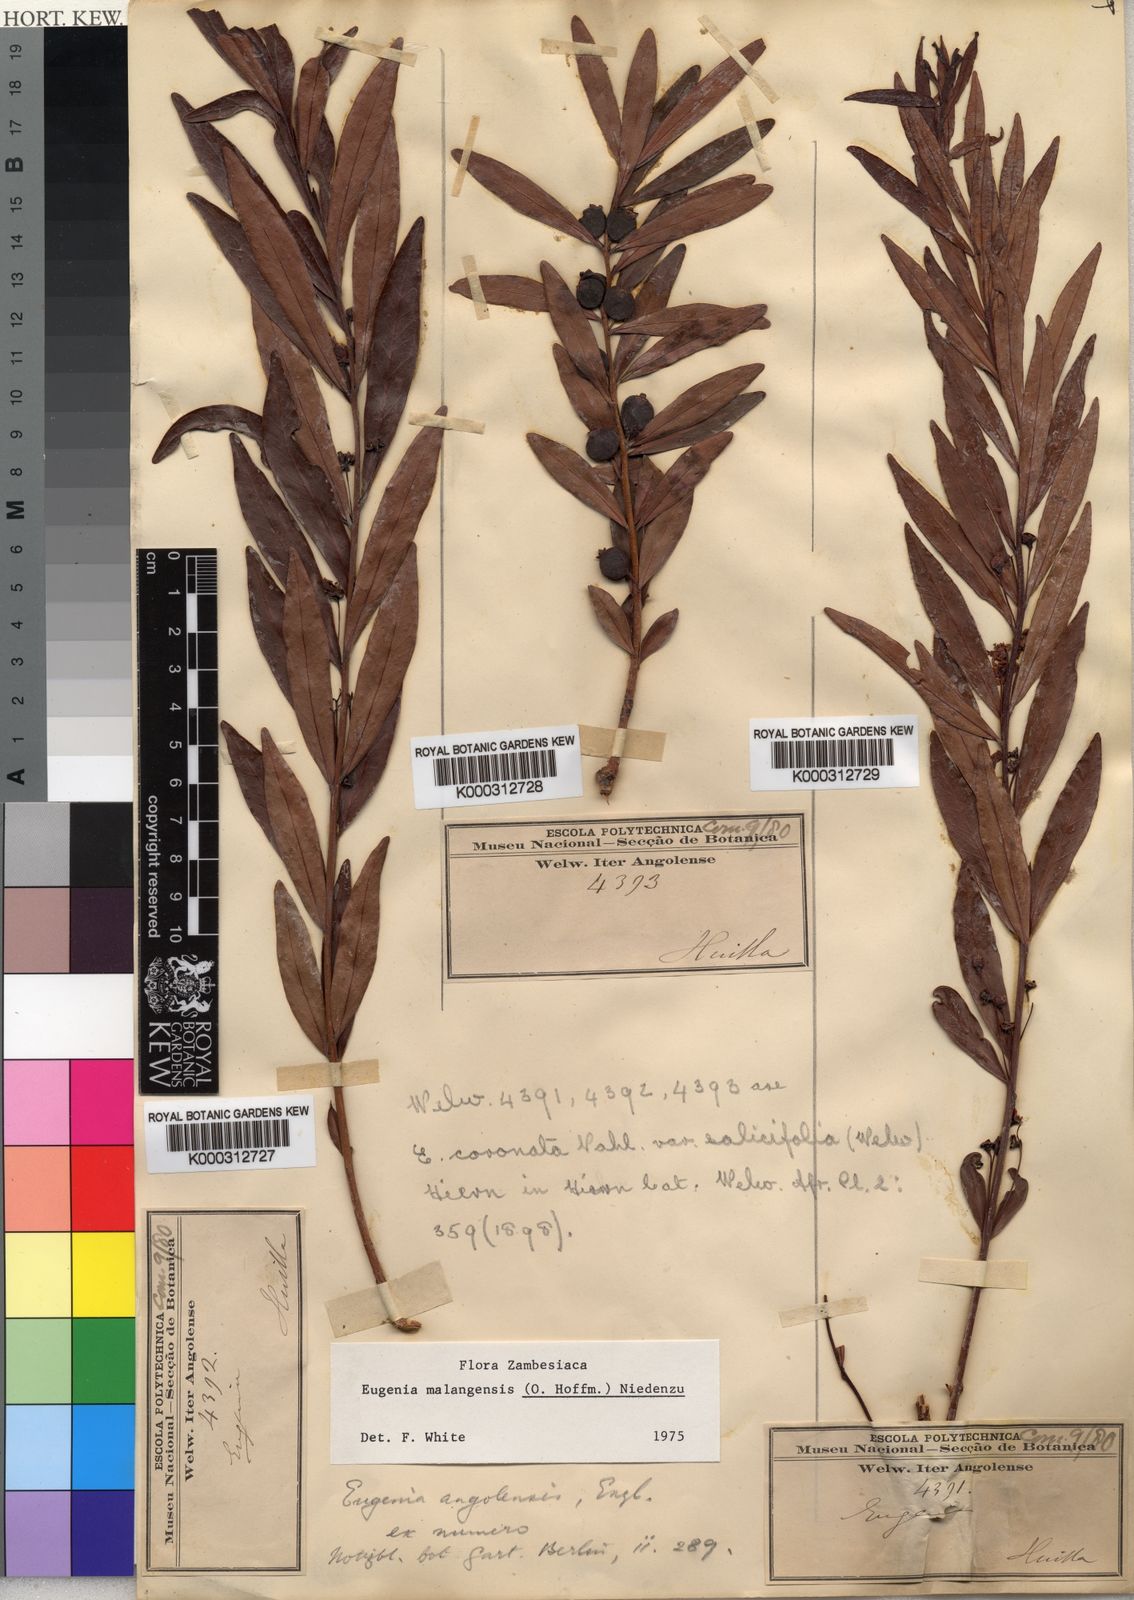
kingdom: Plantae
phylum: Tracheophyta
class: Magnoliopsida
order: Myrtales
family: Myrtaceae
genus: Eugenia
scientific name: Eugenia malangensis
